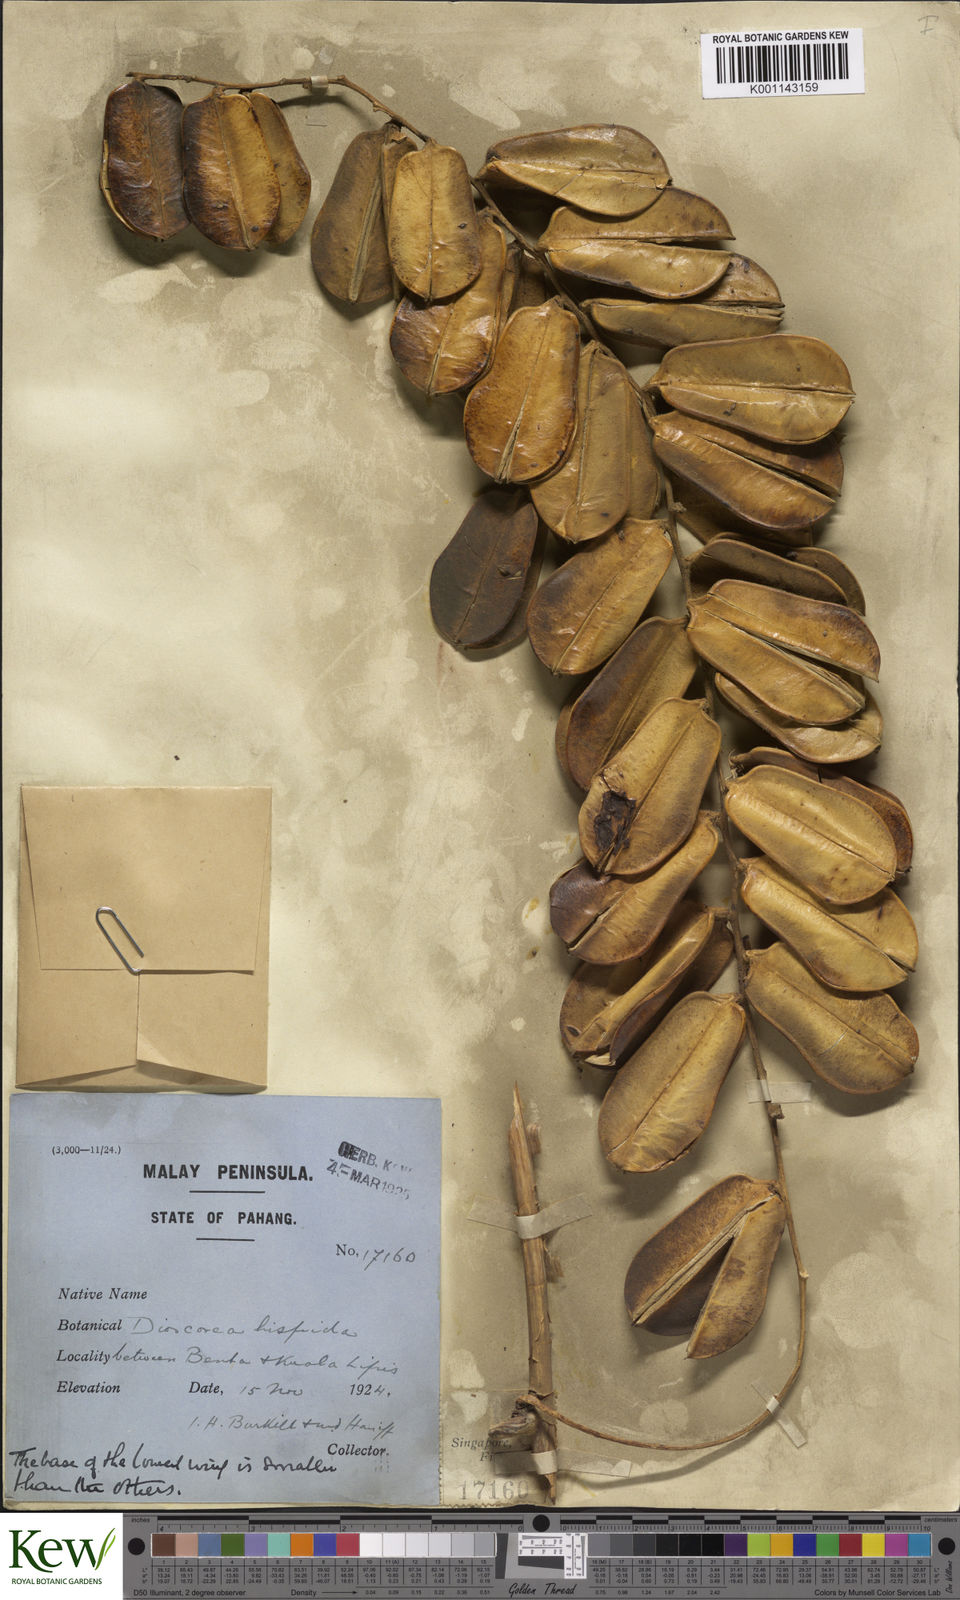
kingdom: Plantae
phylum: Tracheophyta
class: Liliopsida
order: Dioscoreales
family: Dioscoreaceae
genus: Dioscorea
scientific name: Dioscorea hispida
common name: Asiatic bitter yam
